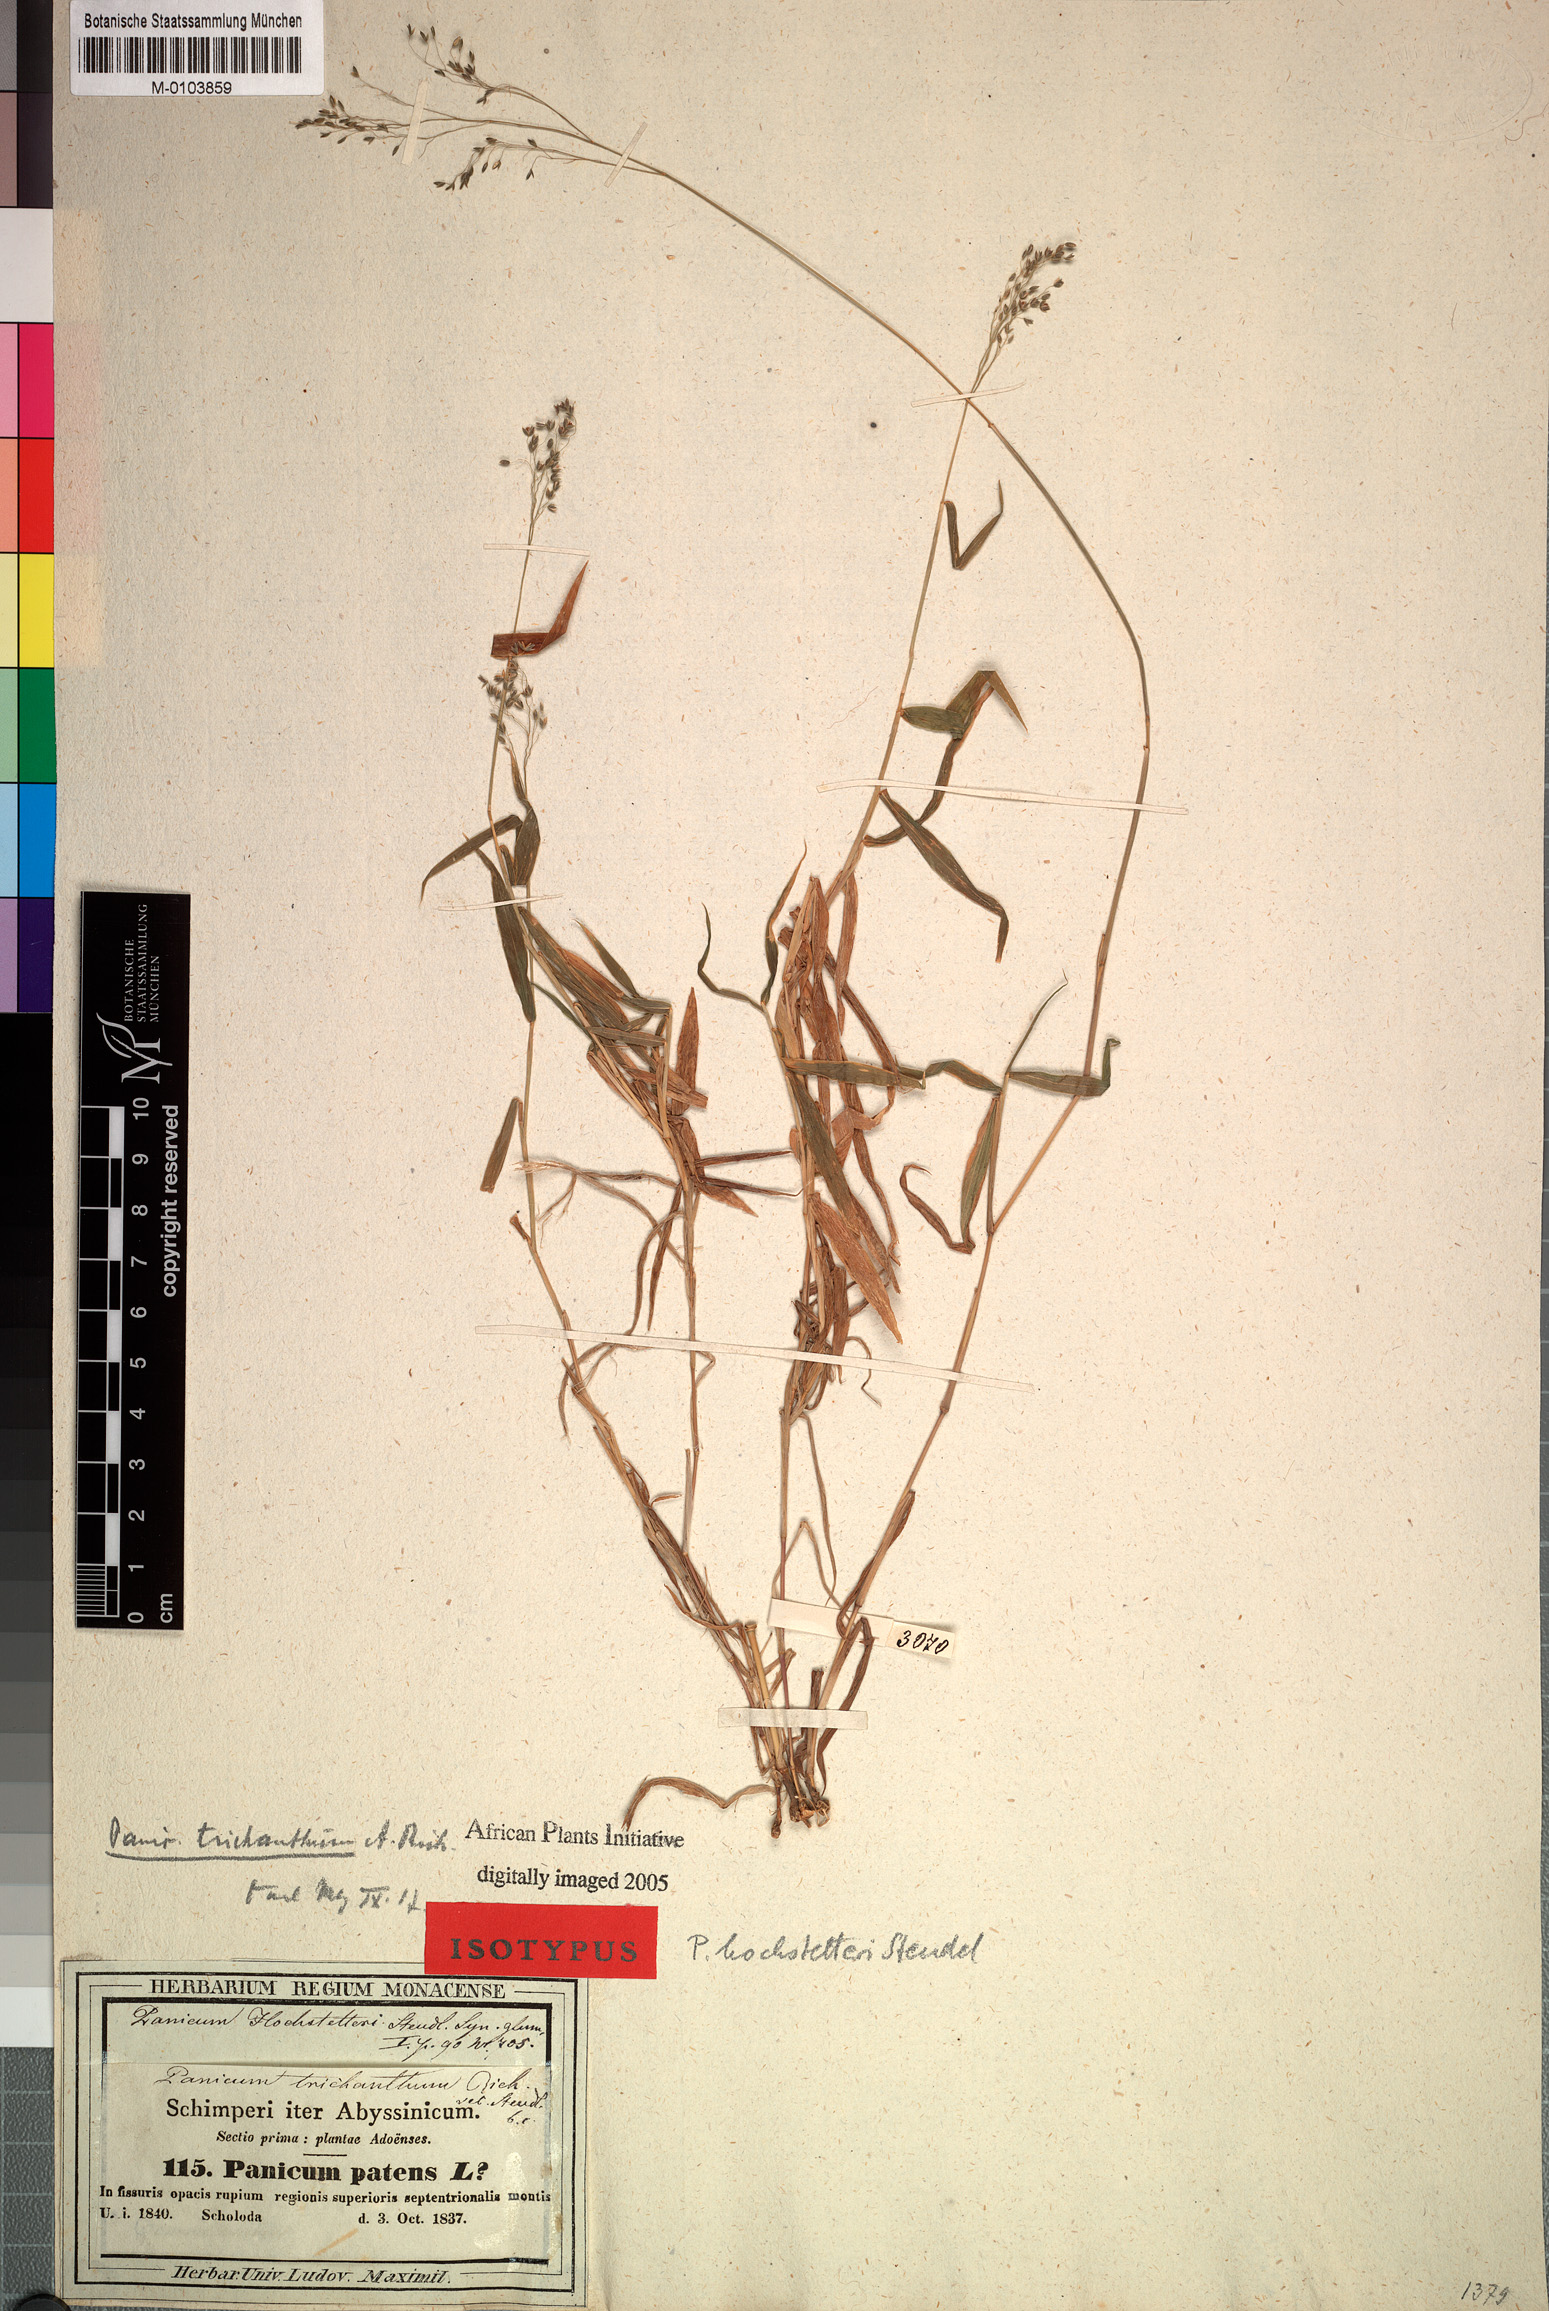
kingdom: Plantae
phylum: Tracheophyta
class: Liliopsida
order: Poales
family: Poaceae
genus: Panicum
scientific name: Panicum hochstetteri
